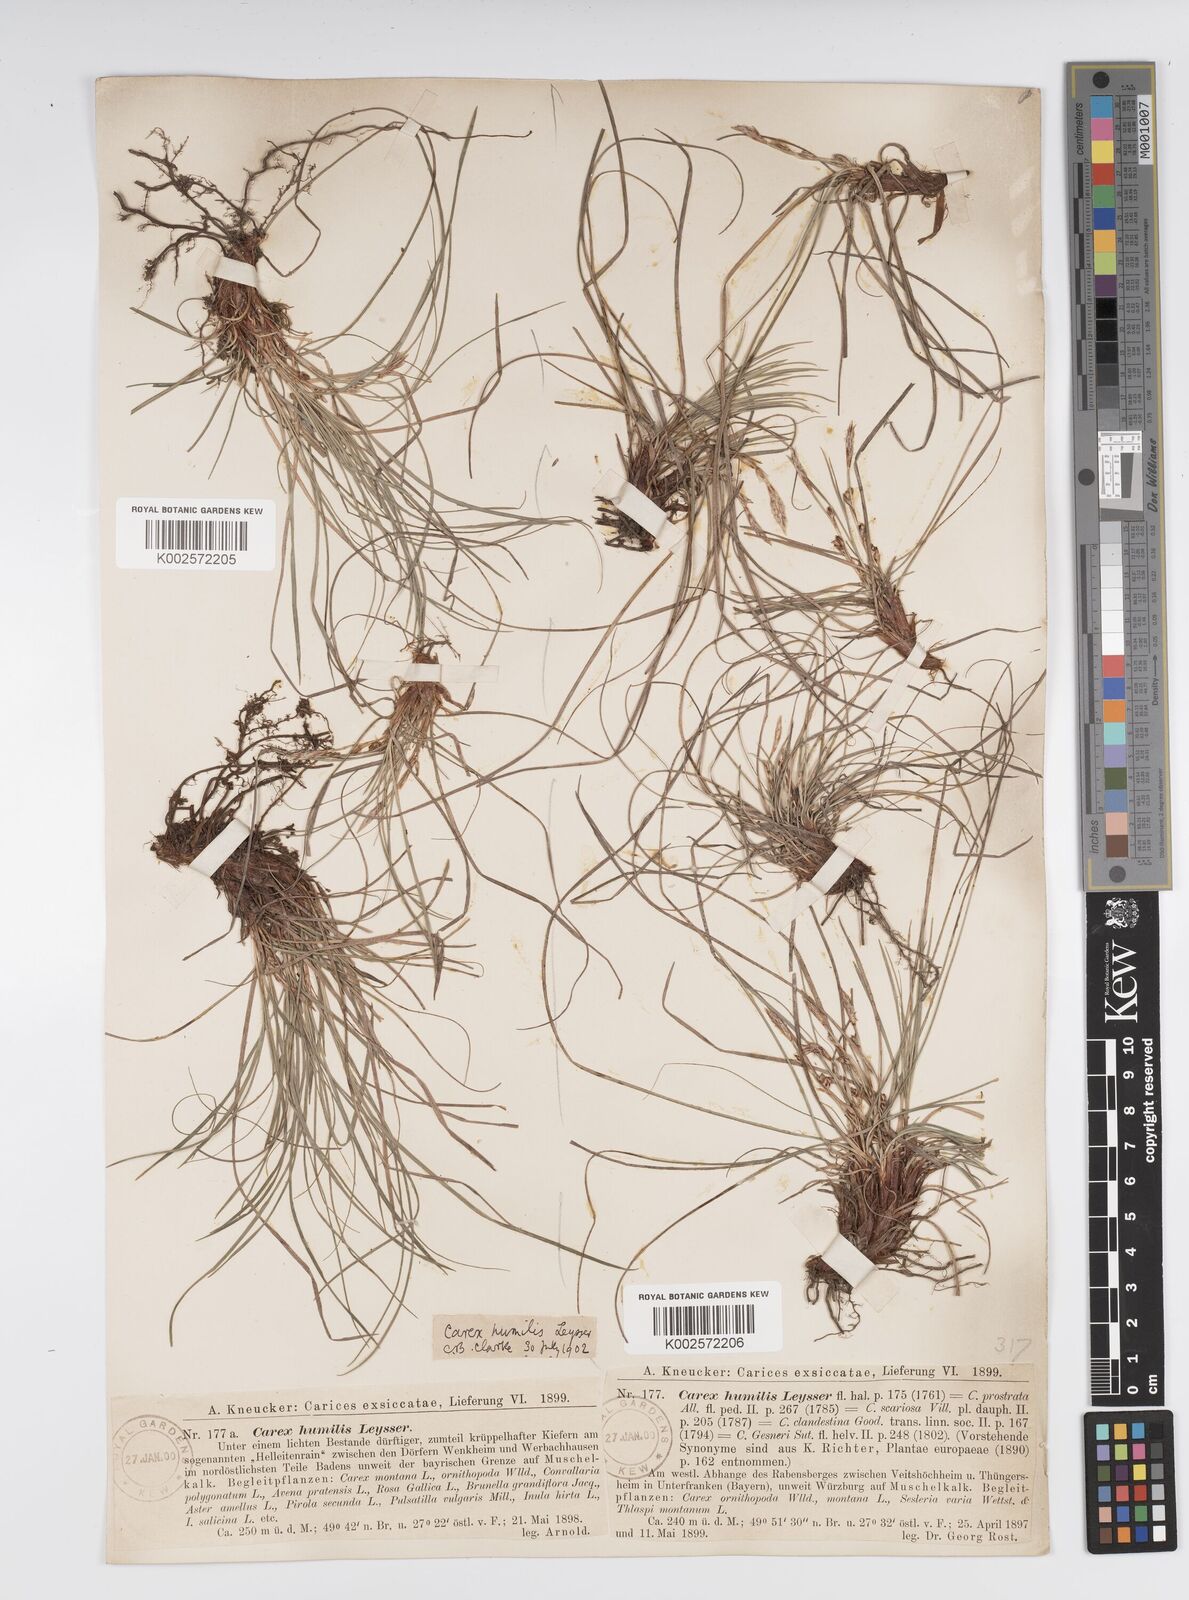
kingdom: Plantae
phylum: Tracheophyta
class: Liliopsida
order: Poales
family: Cyperaceae
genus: Carex
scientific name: Carex humilis
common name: Dwarf sedge
